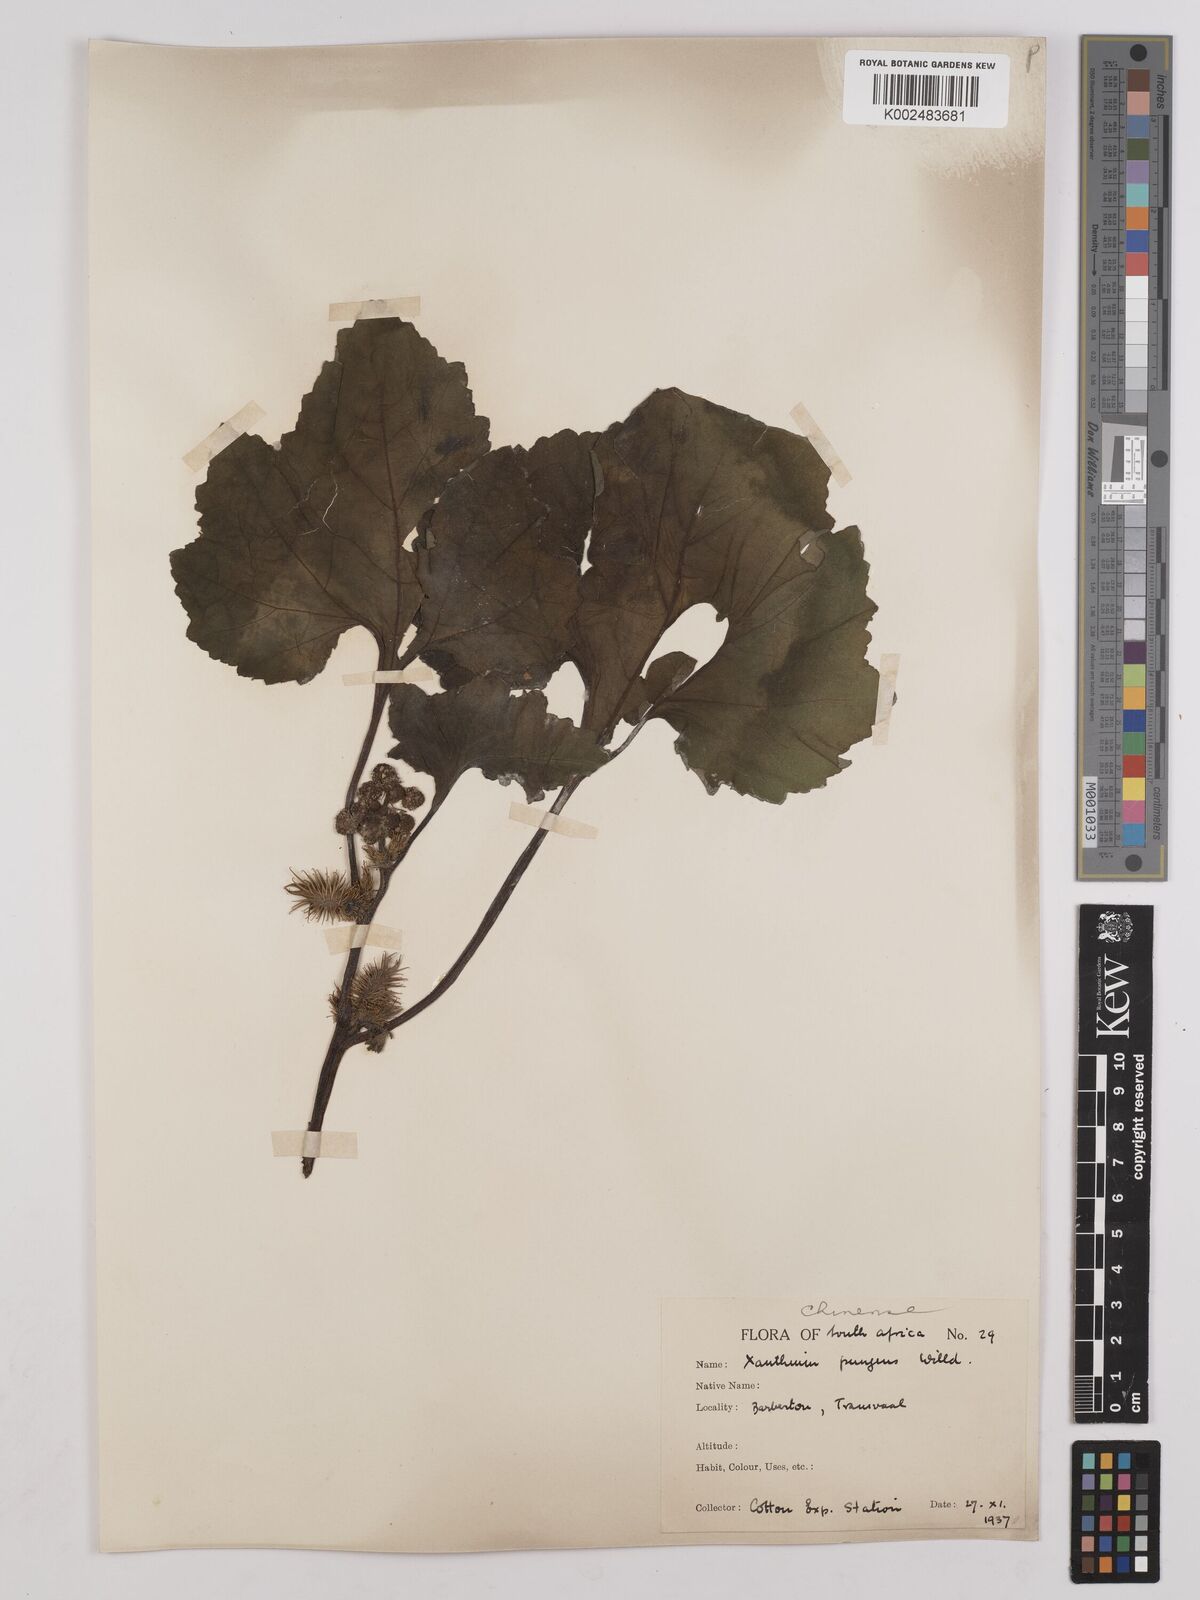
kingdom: Plantae
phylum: Tracheophyta
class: Magnoliopsida
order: Asterales
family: Asteraceae
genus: Xanthium
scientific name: Xanthium occidentale
